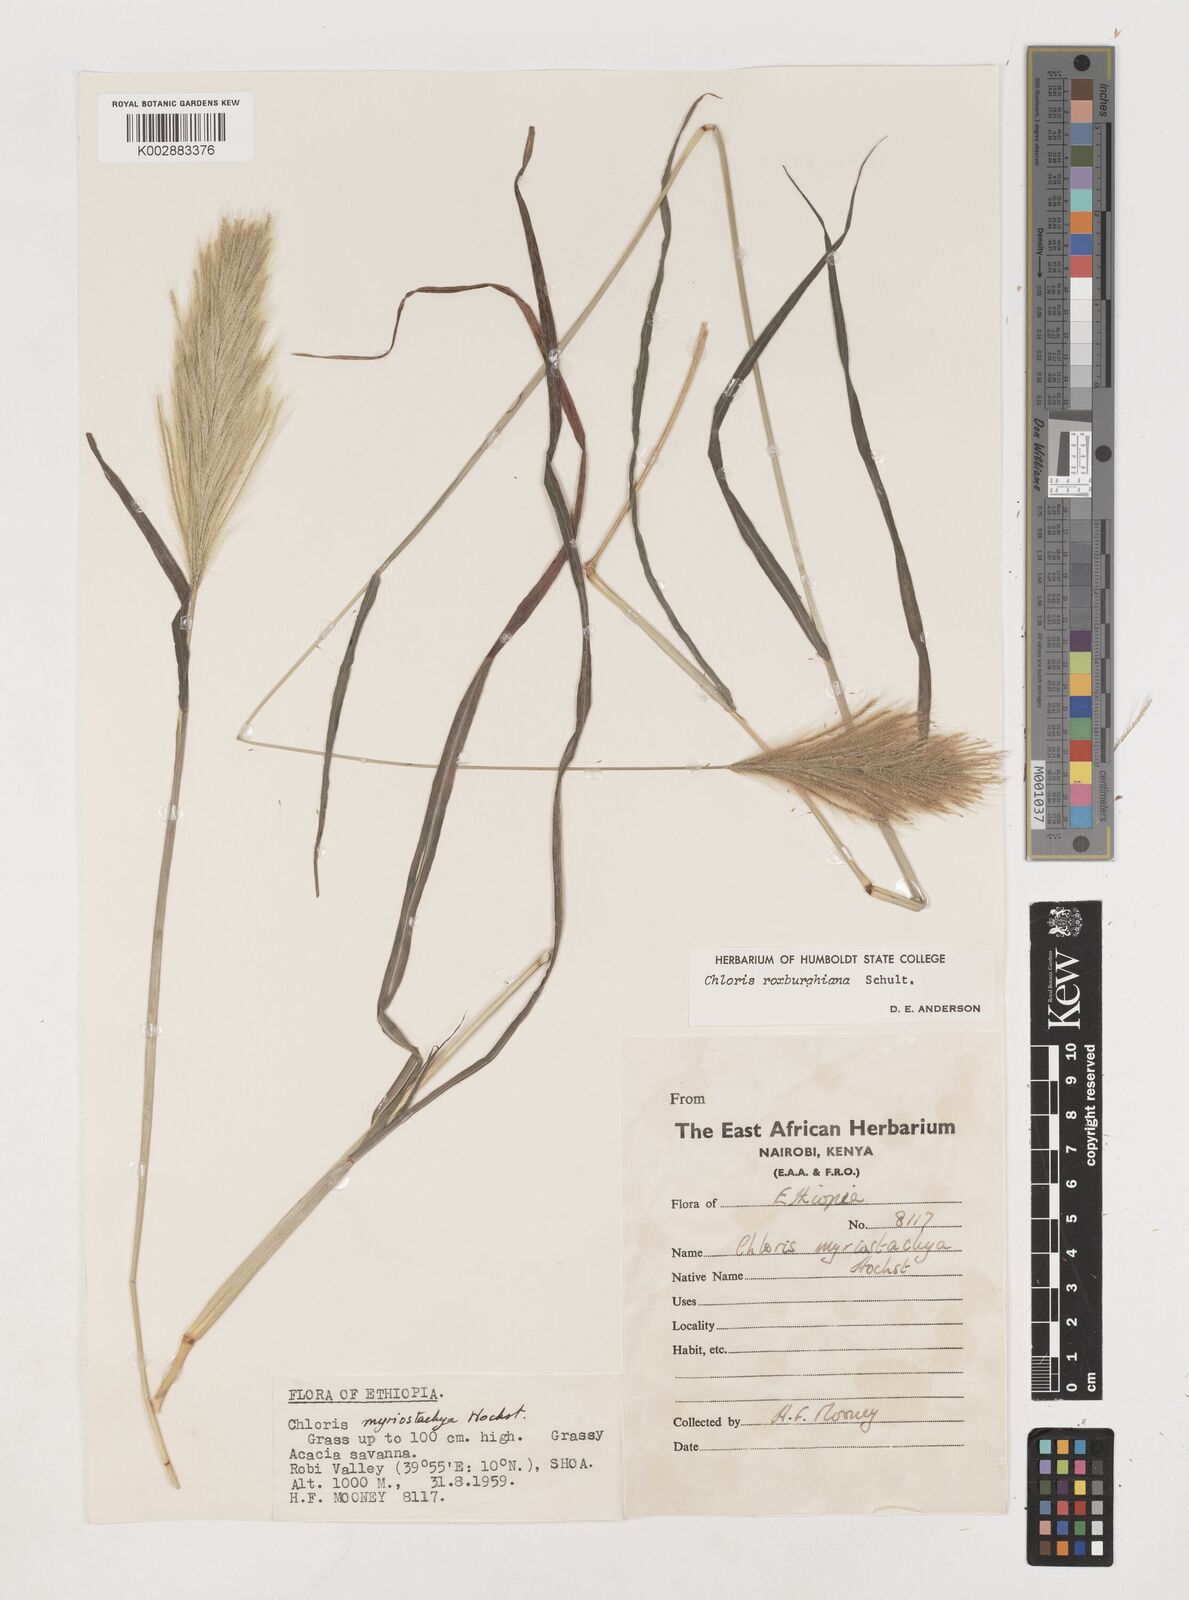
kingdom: Plantae
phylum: Tracheophyta
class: Liliopsida
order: Poales
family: Poaceae
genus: Tetrapogon
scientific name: Tetrapogon roxburghiana
